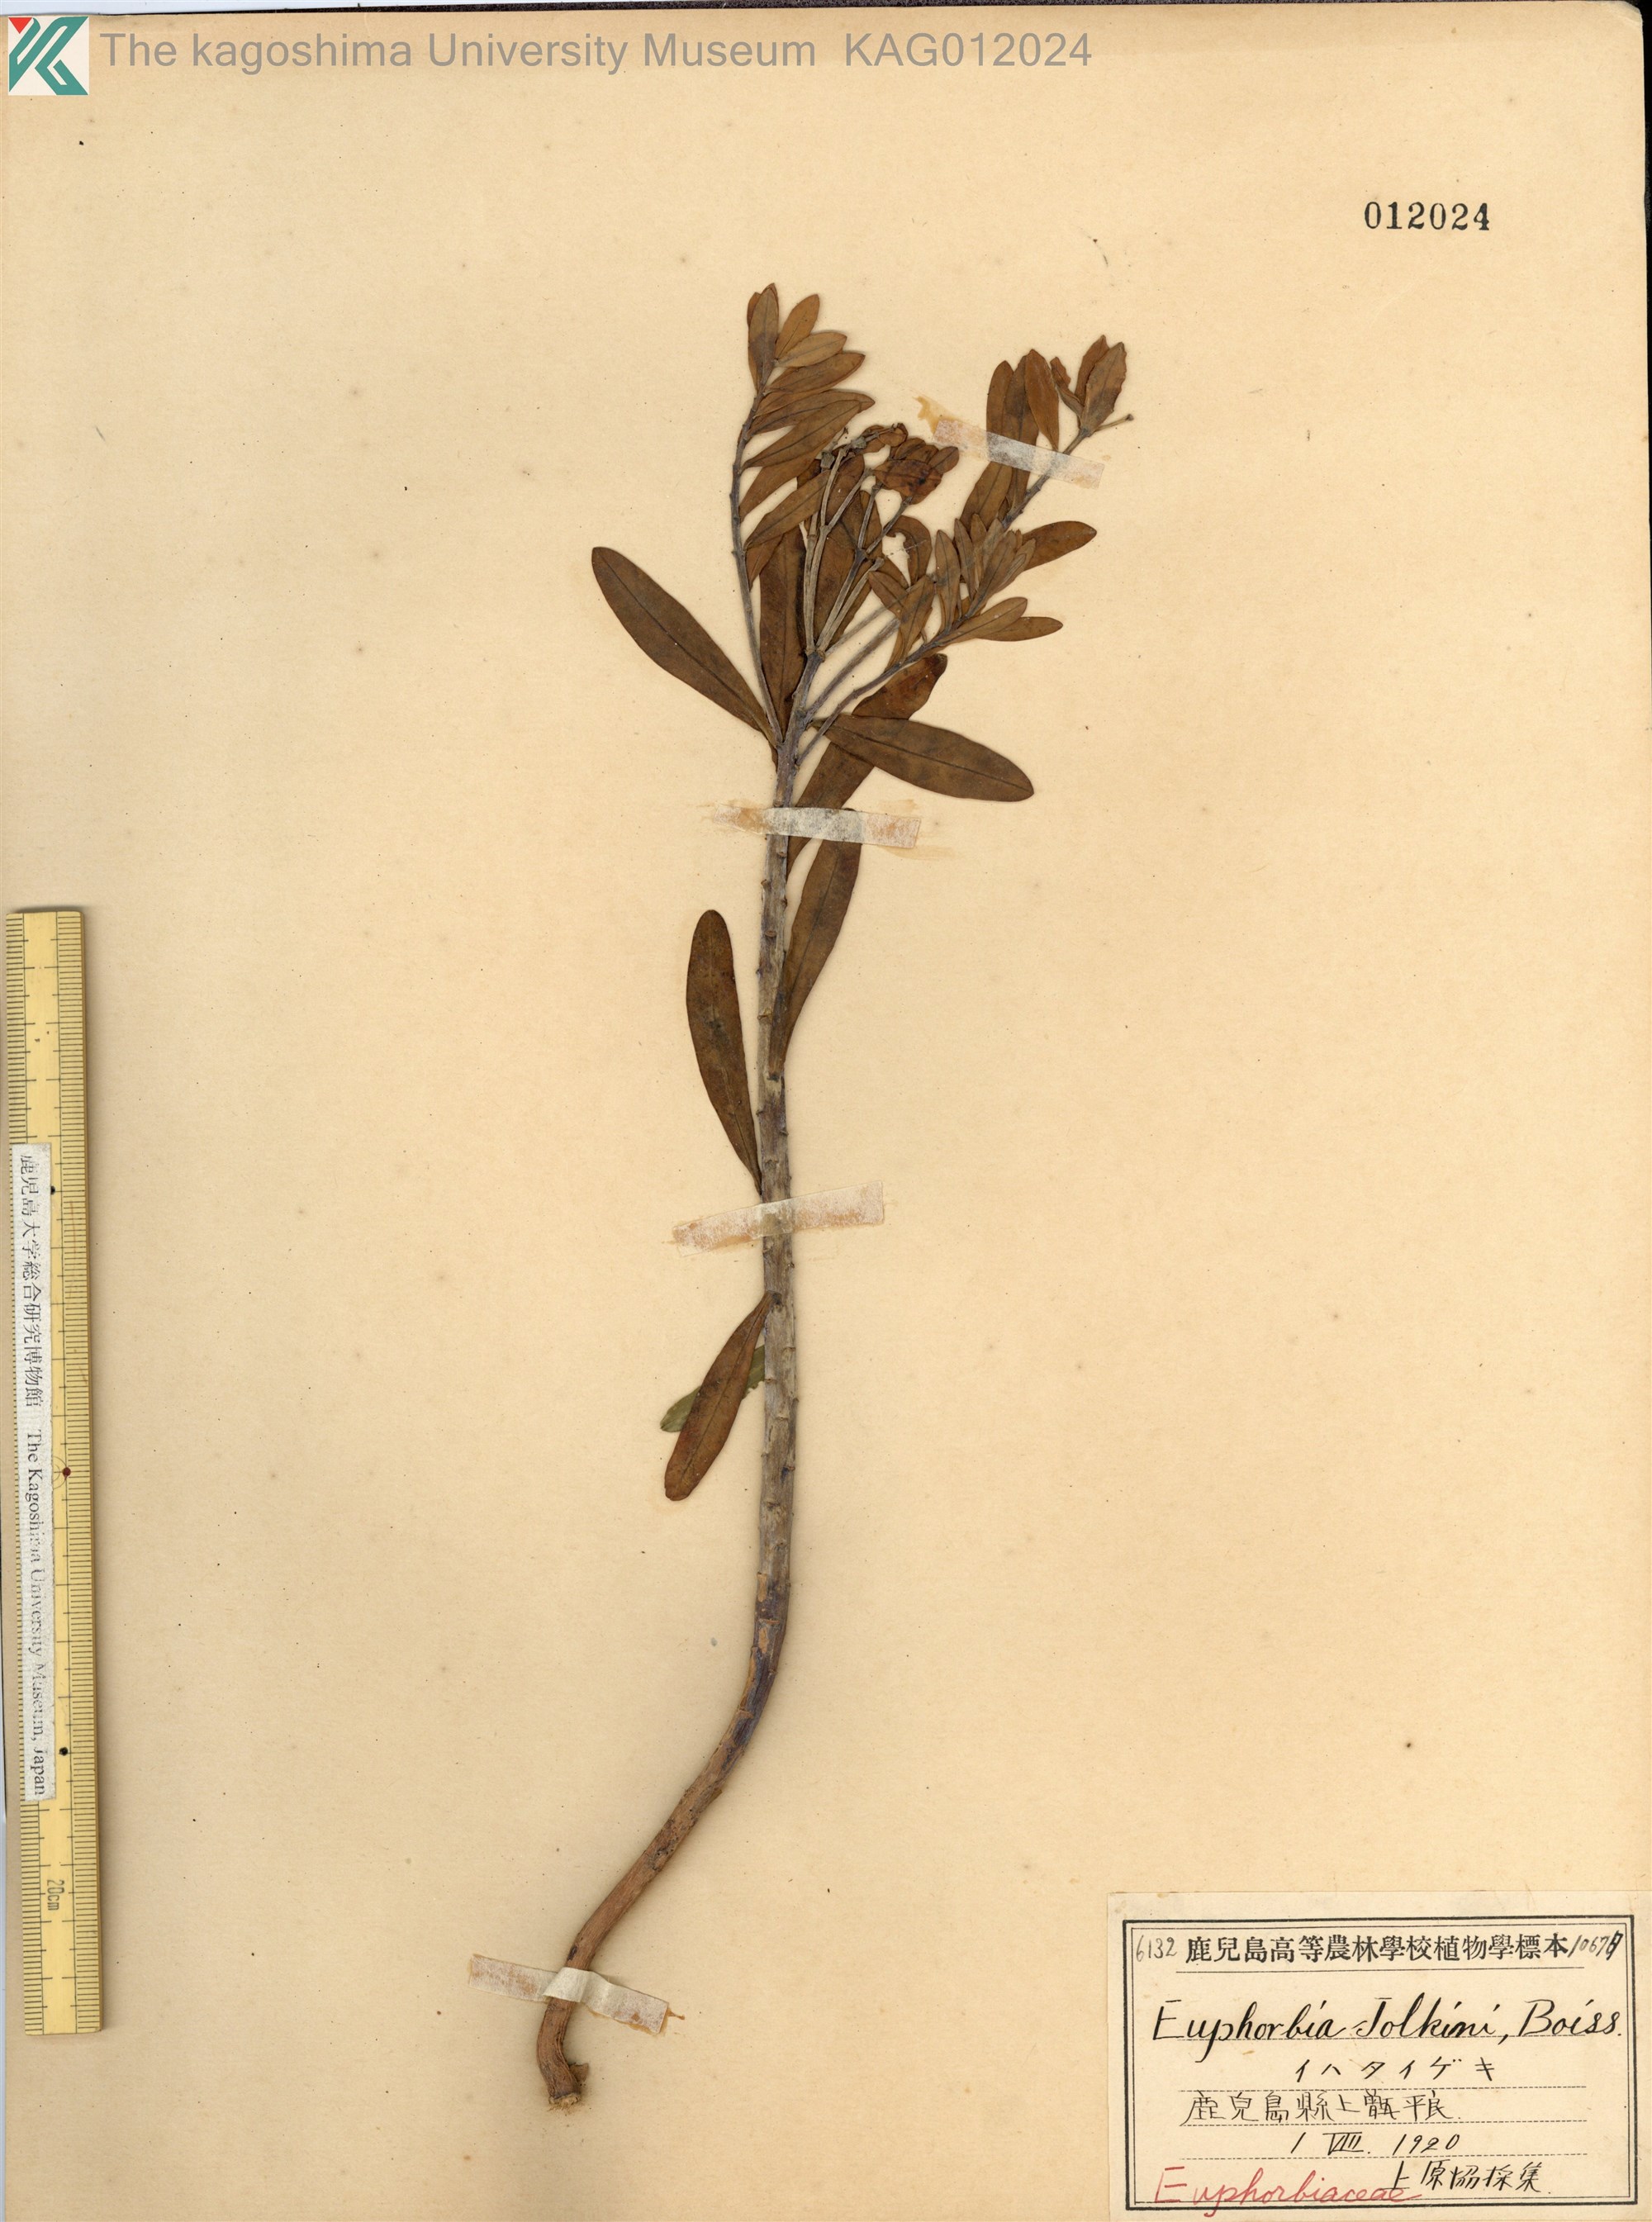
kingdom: Plantae
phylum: Tracheophyta
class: Magnoliopsida
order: Malpighiales
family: Euphorbiaceae
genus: Euphorbia
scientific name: Euphorbia jolkinii
